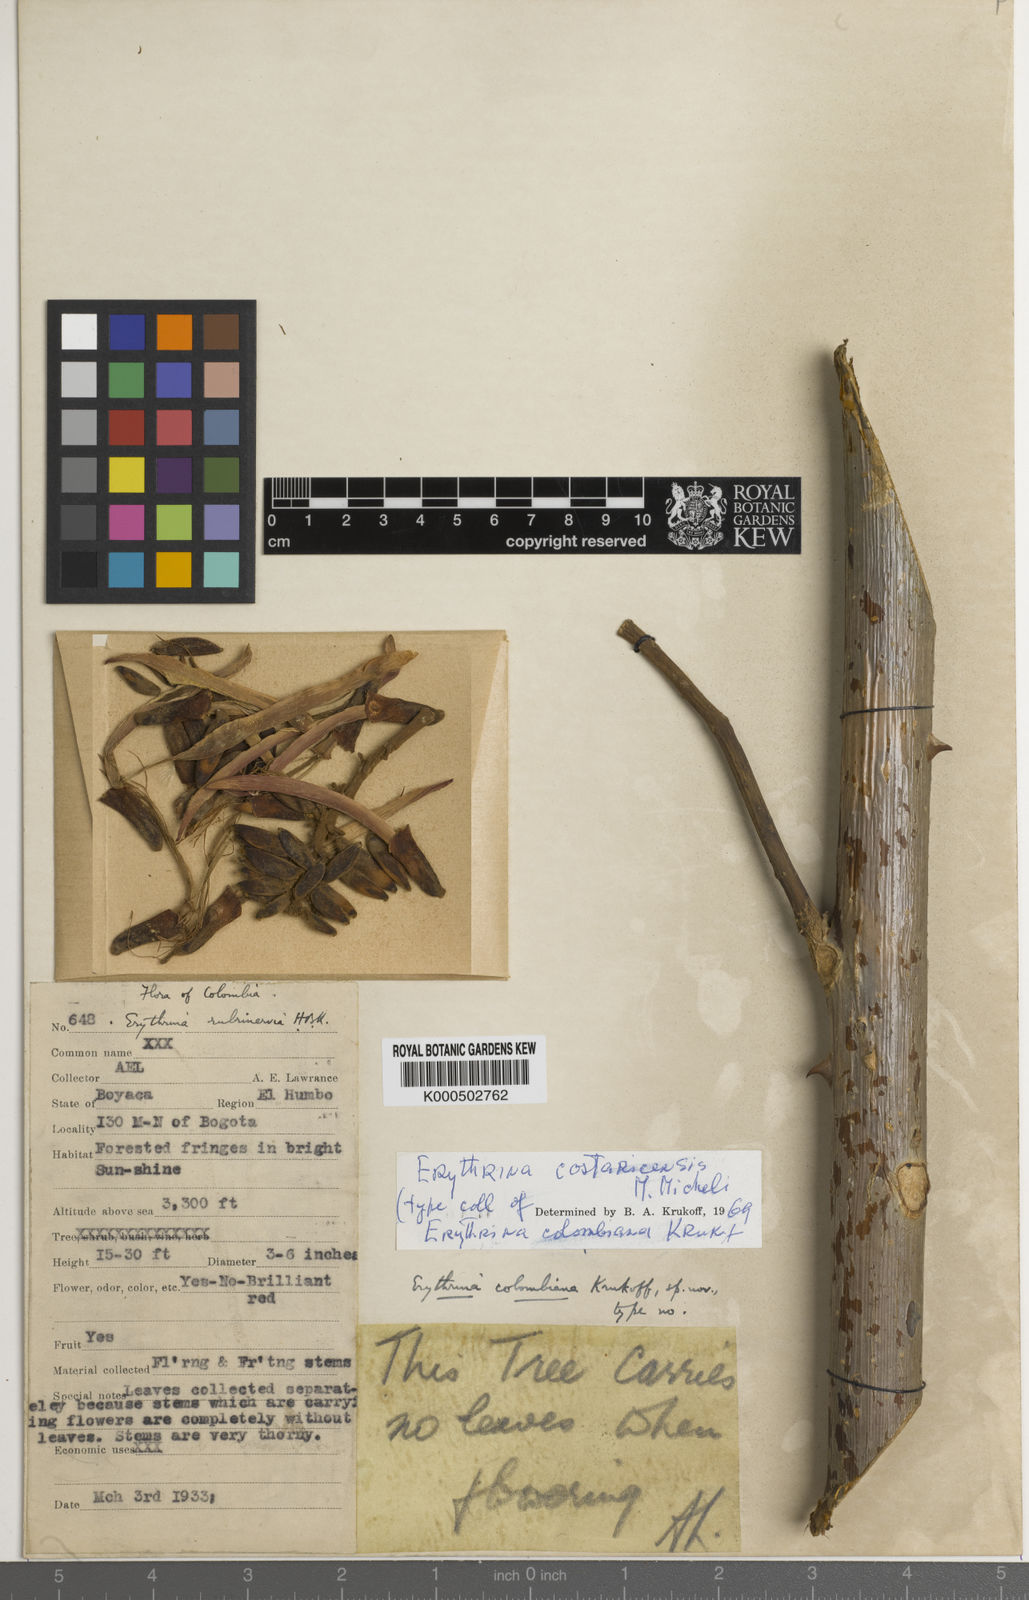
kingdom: Plantae
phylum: Tracheophyta
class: Magnoliopsida
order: Fabales
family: Fabaceae
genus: Erythrina
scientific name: Erythrina costaricensis
